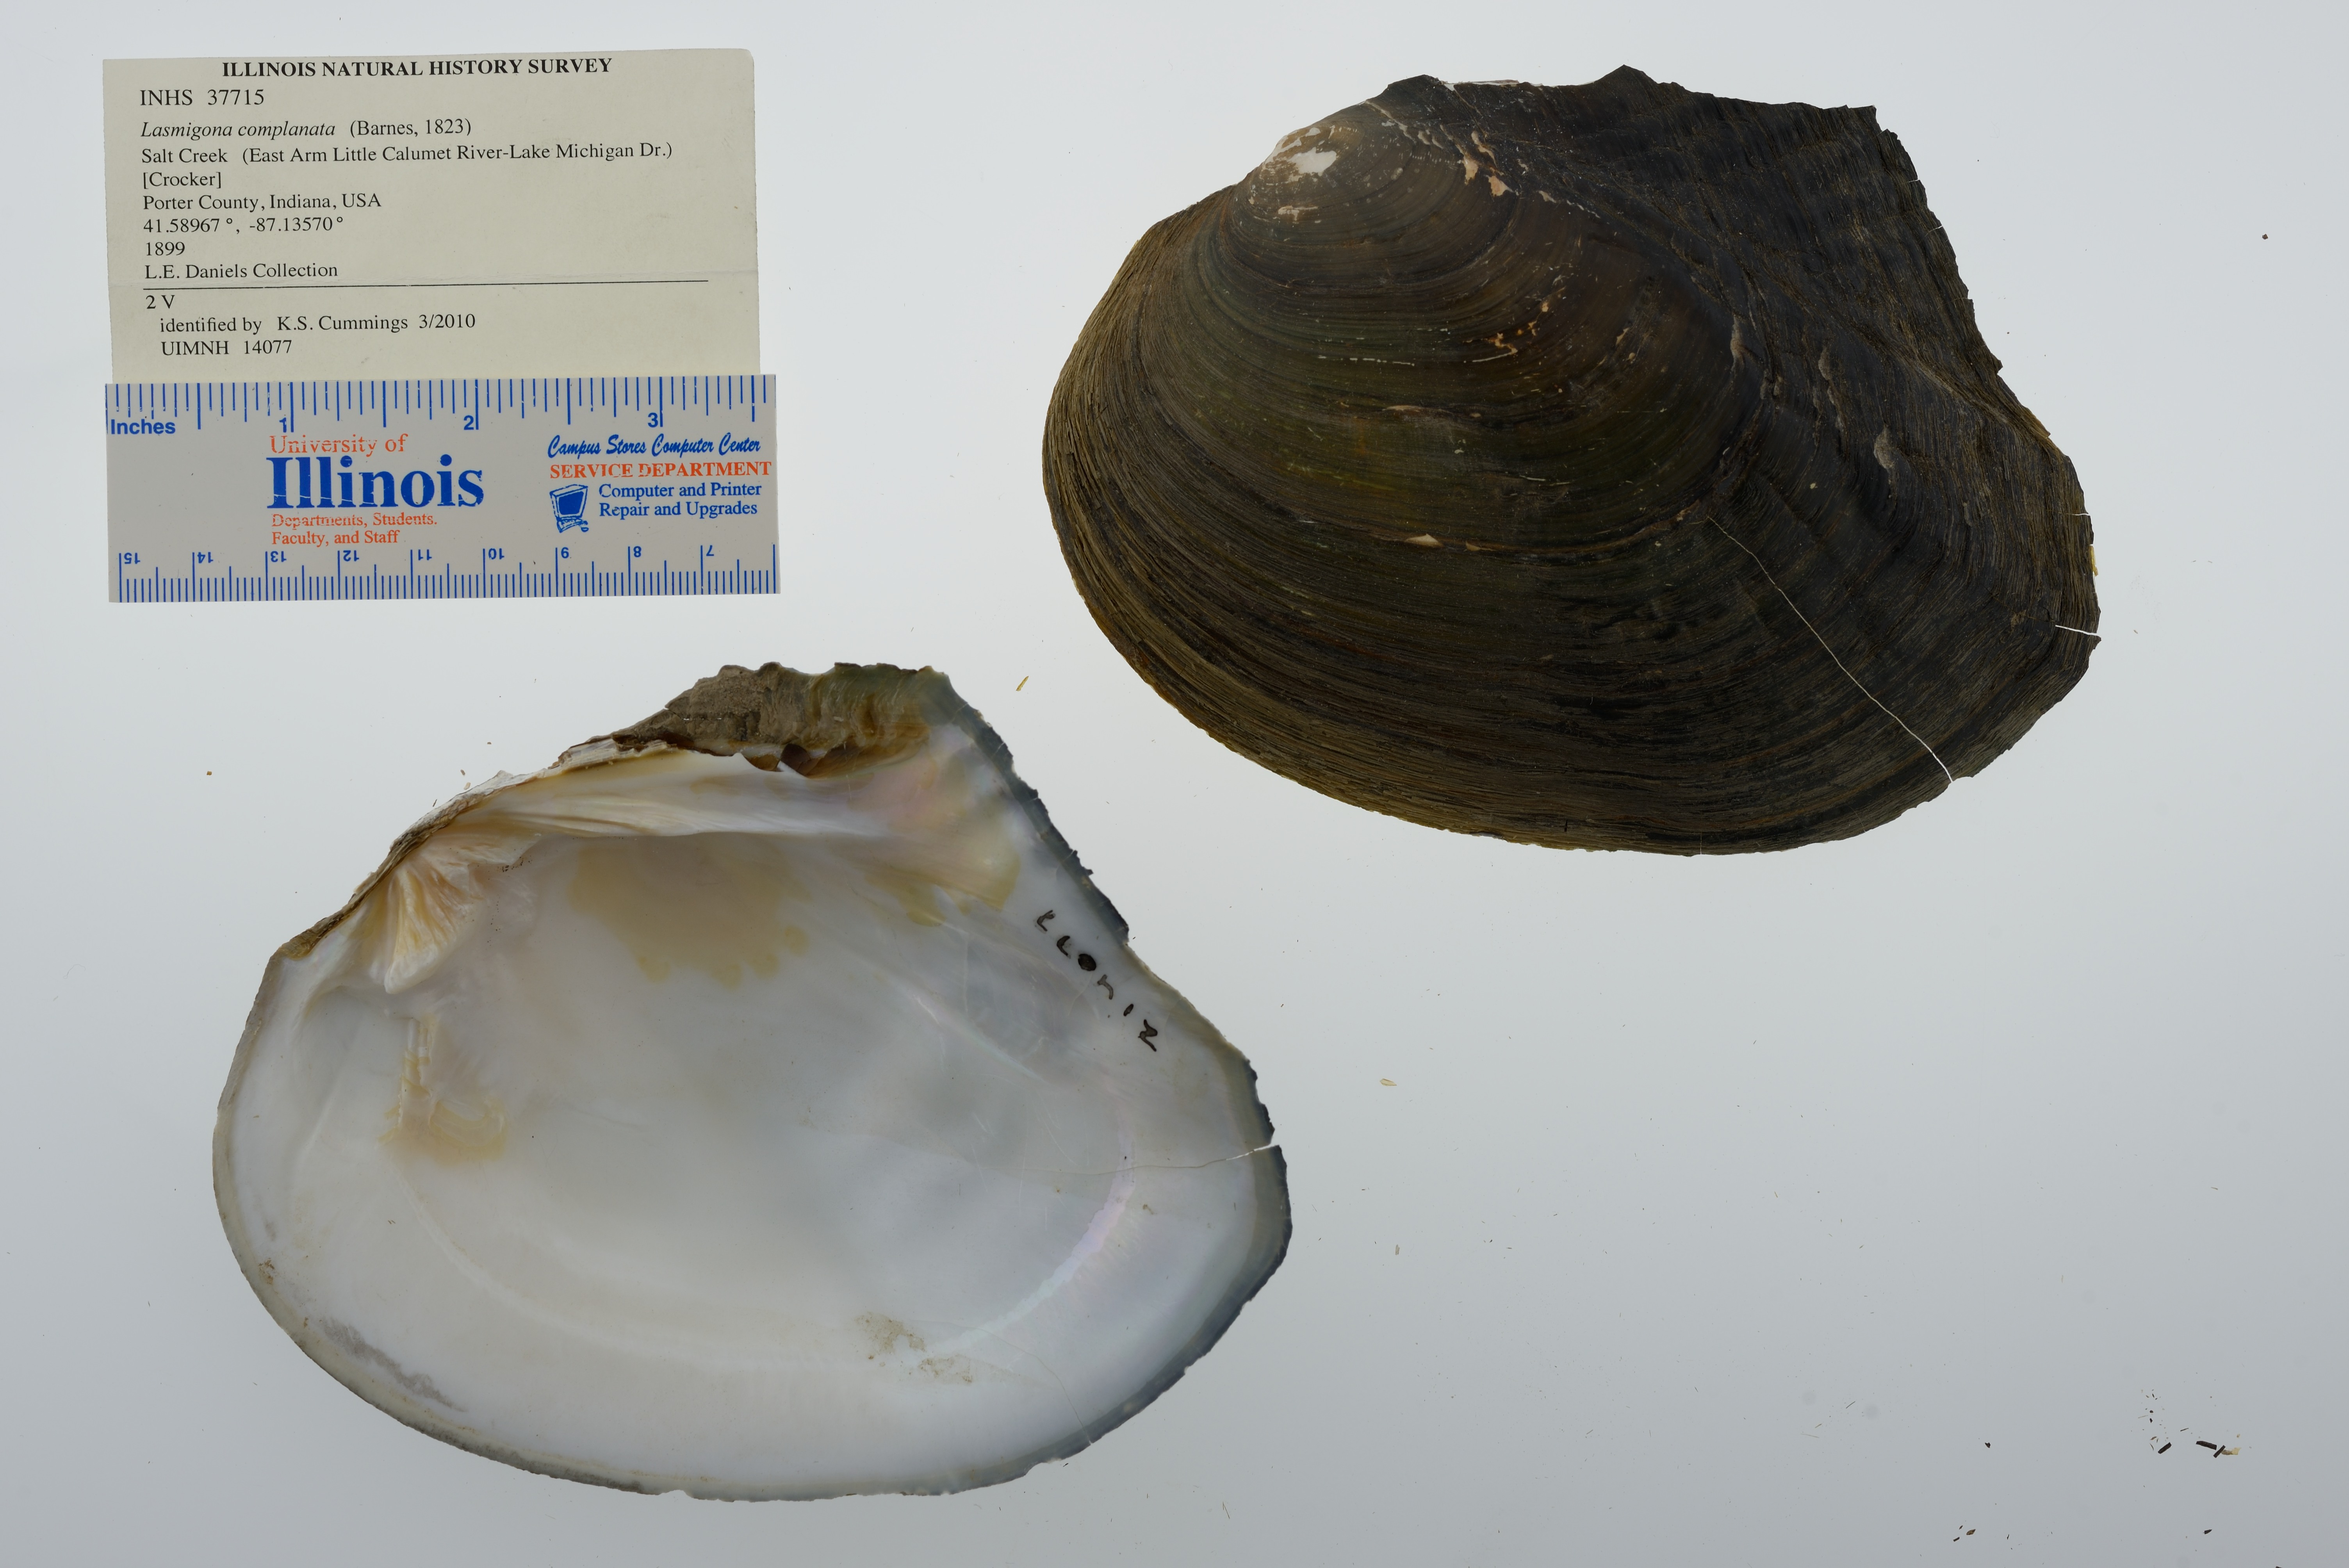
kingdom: Animalia
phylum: Mollusca
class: Bivalvia
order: Unionida
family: Unionidae
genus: Lasmigona
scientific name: Lasmigona complanata
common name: White heelsplitter
